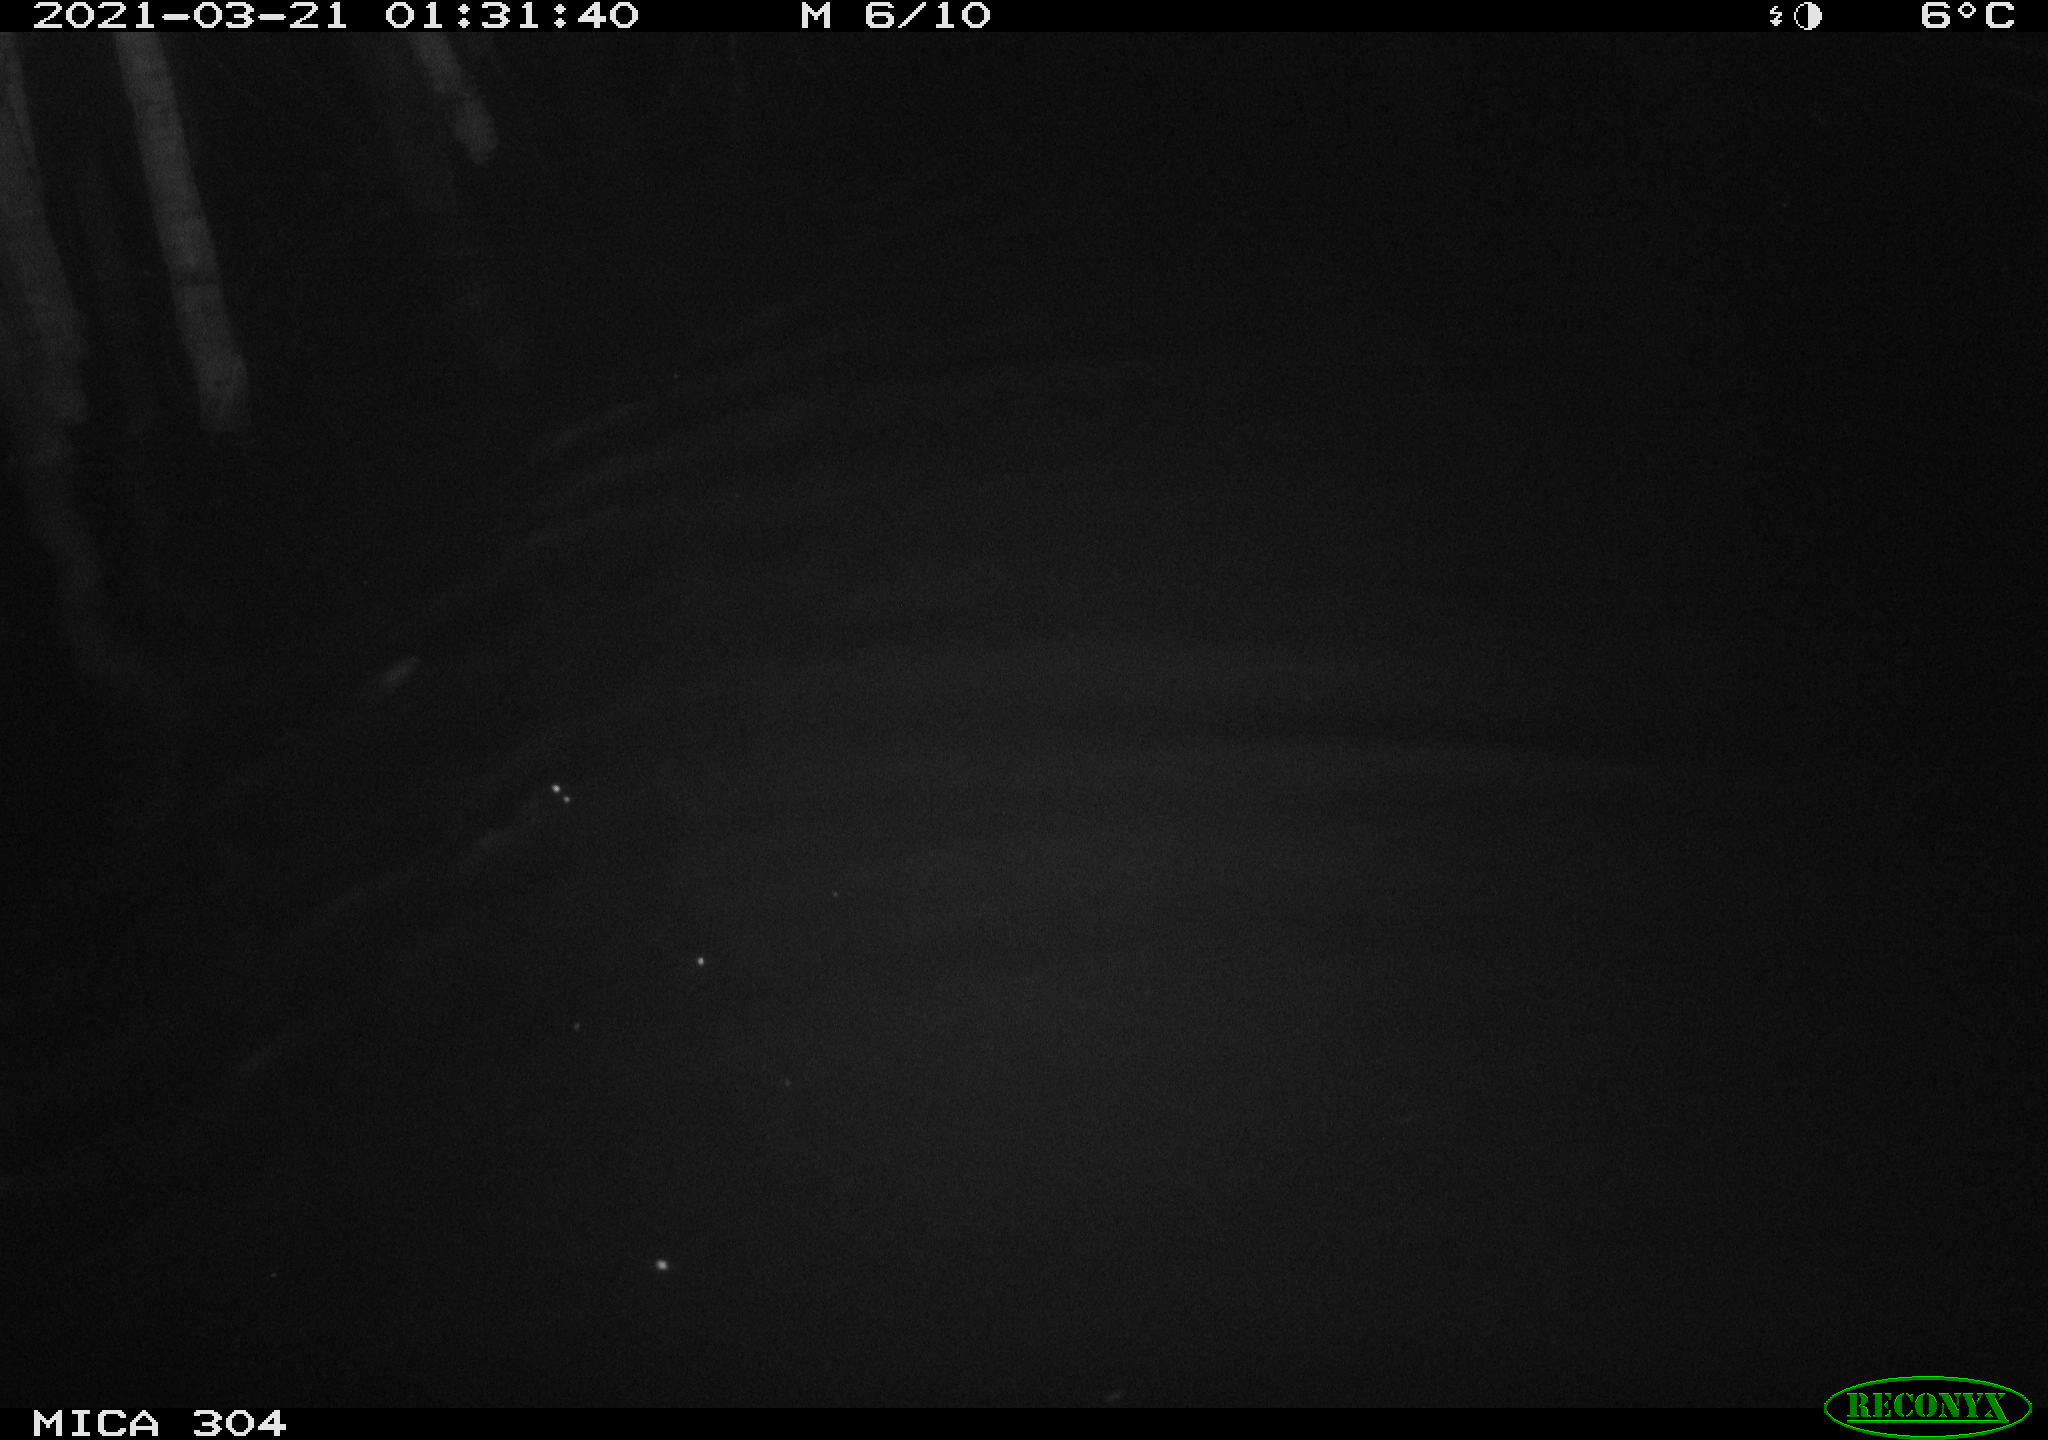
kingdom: Animalia
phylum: Chordata
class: Aves
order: Anseriformes
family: Anatidae
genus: Anas
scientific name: Anas platyrhynchos
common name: Mallard
